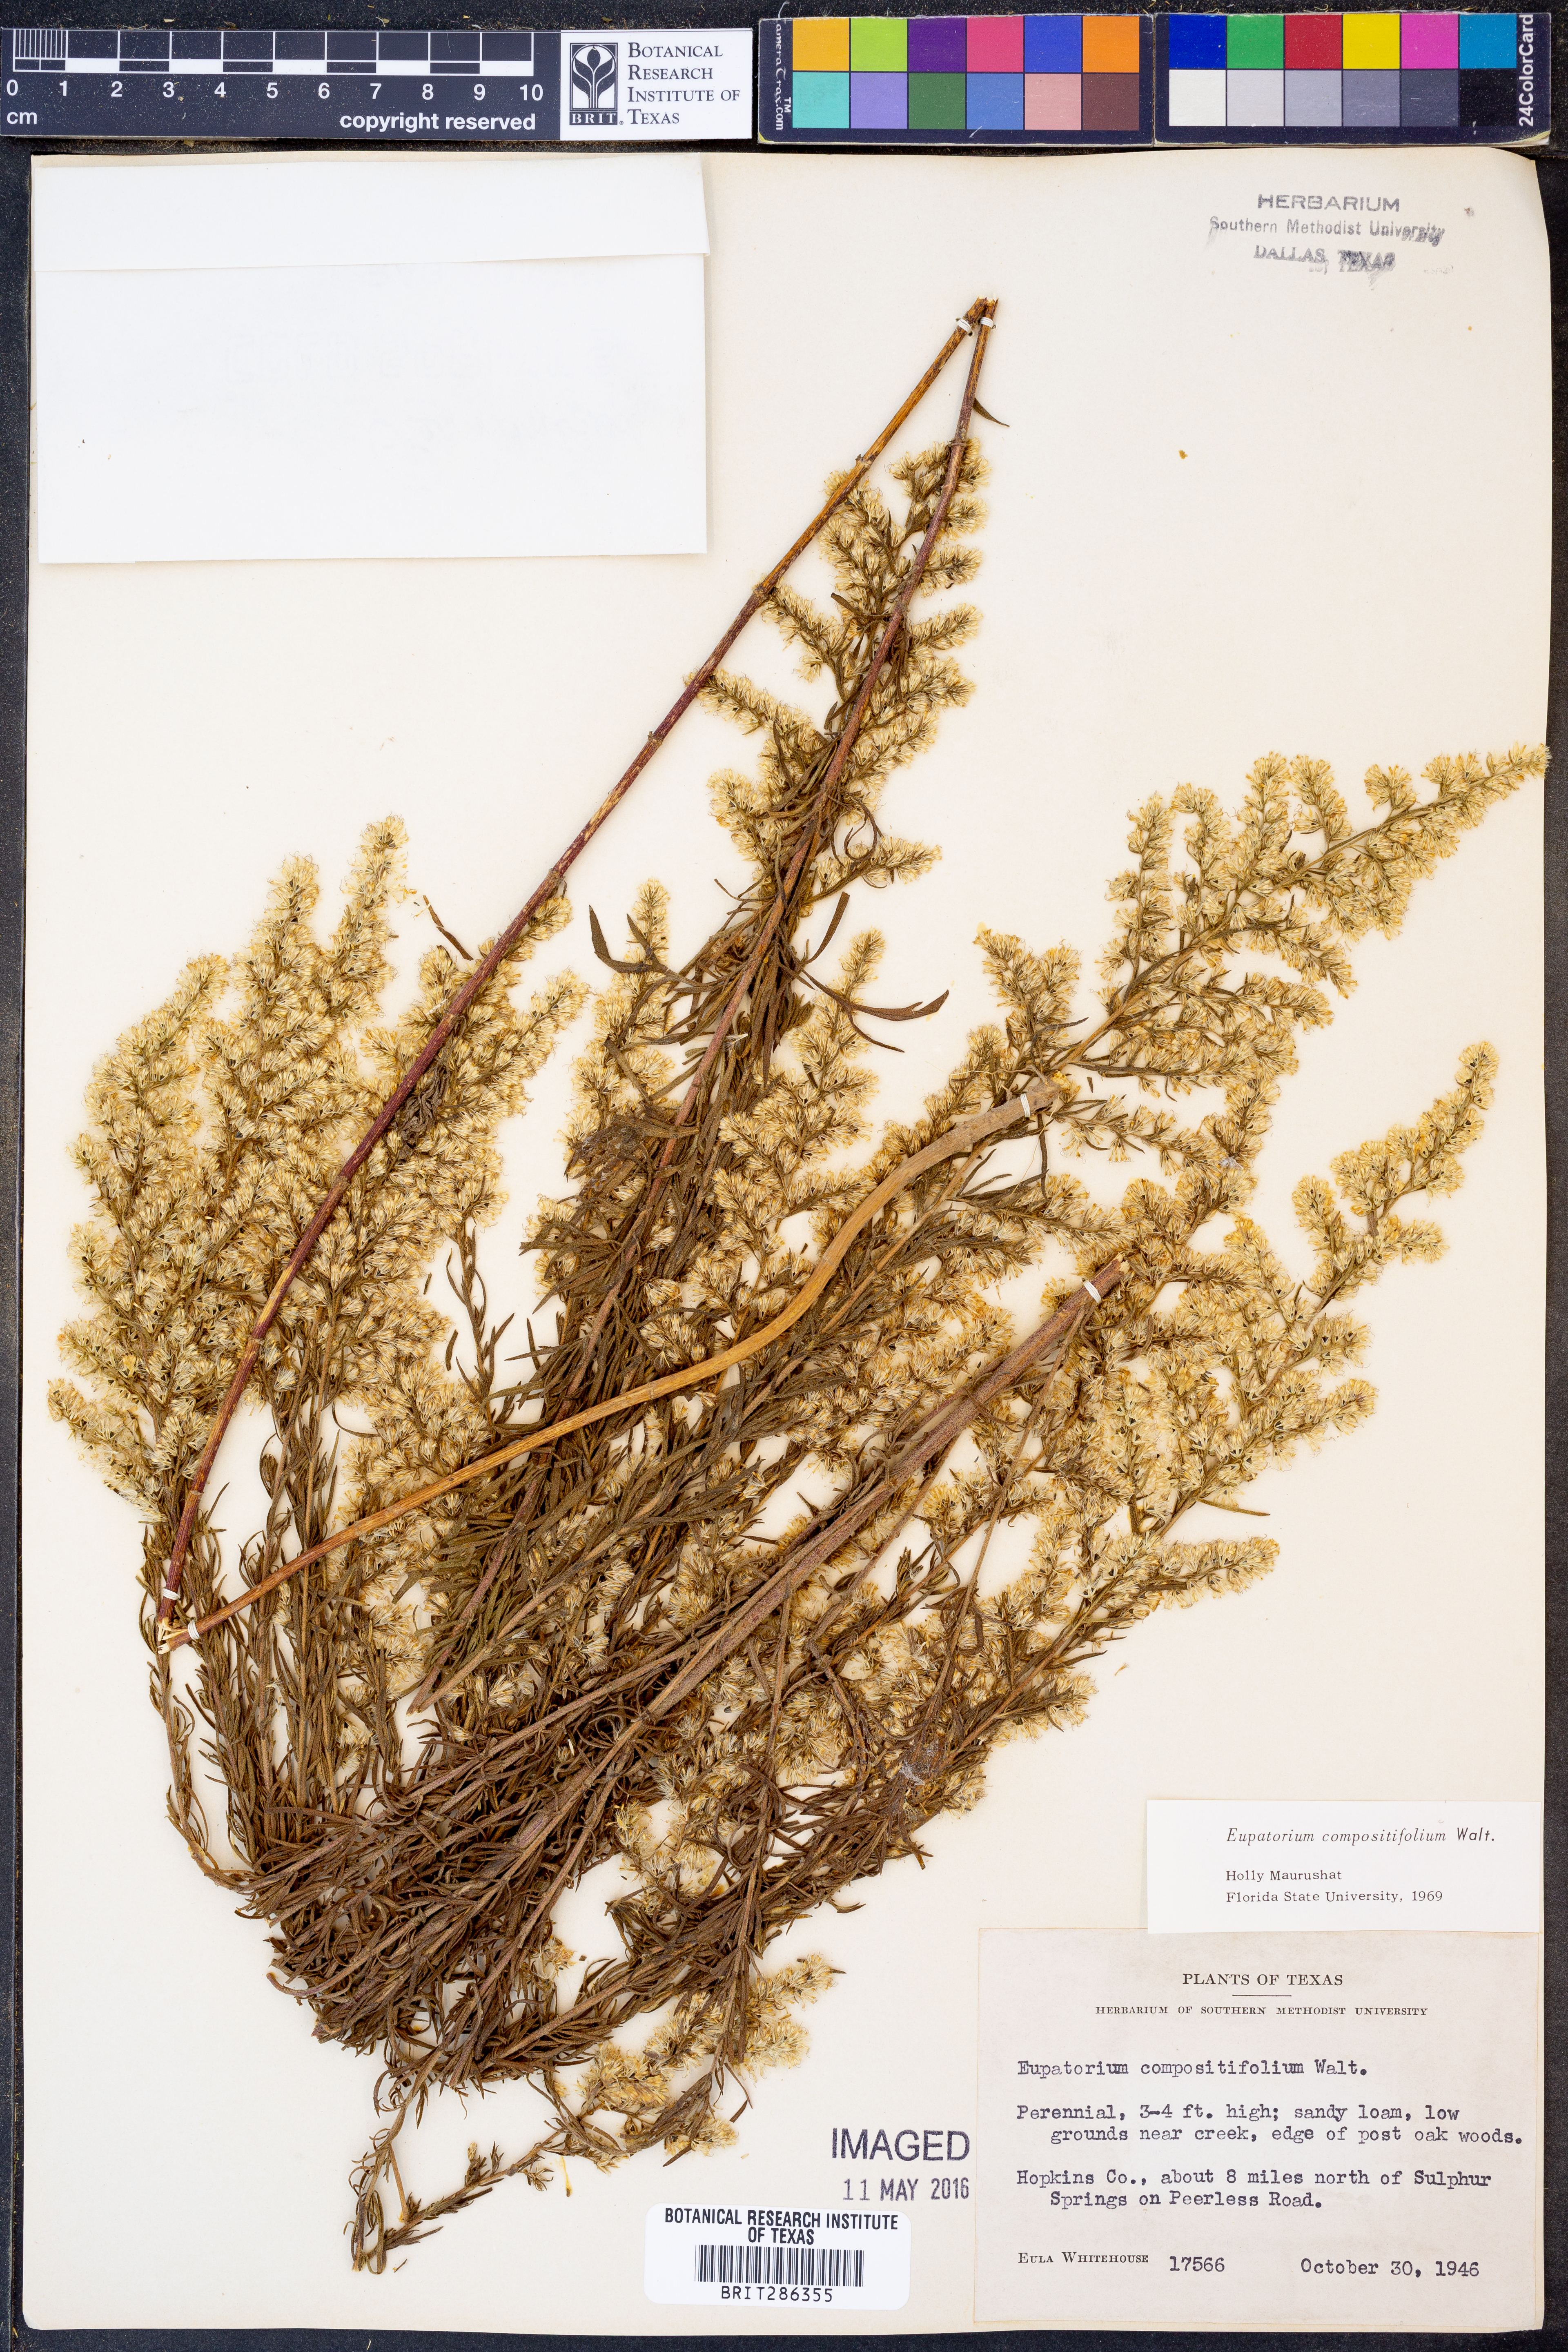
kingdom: Plantae
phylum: Tracheophyta
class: Magnoliopsida
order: Asterales
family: Asteraceae
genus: Eupatorium
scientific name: Eupatorium compositifolium
